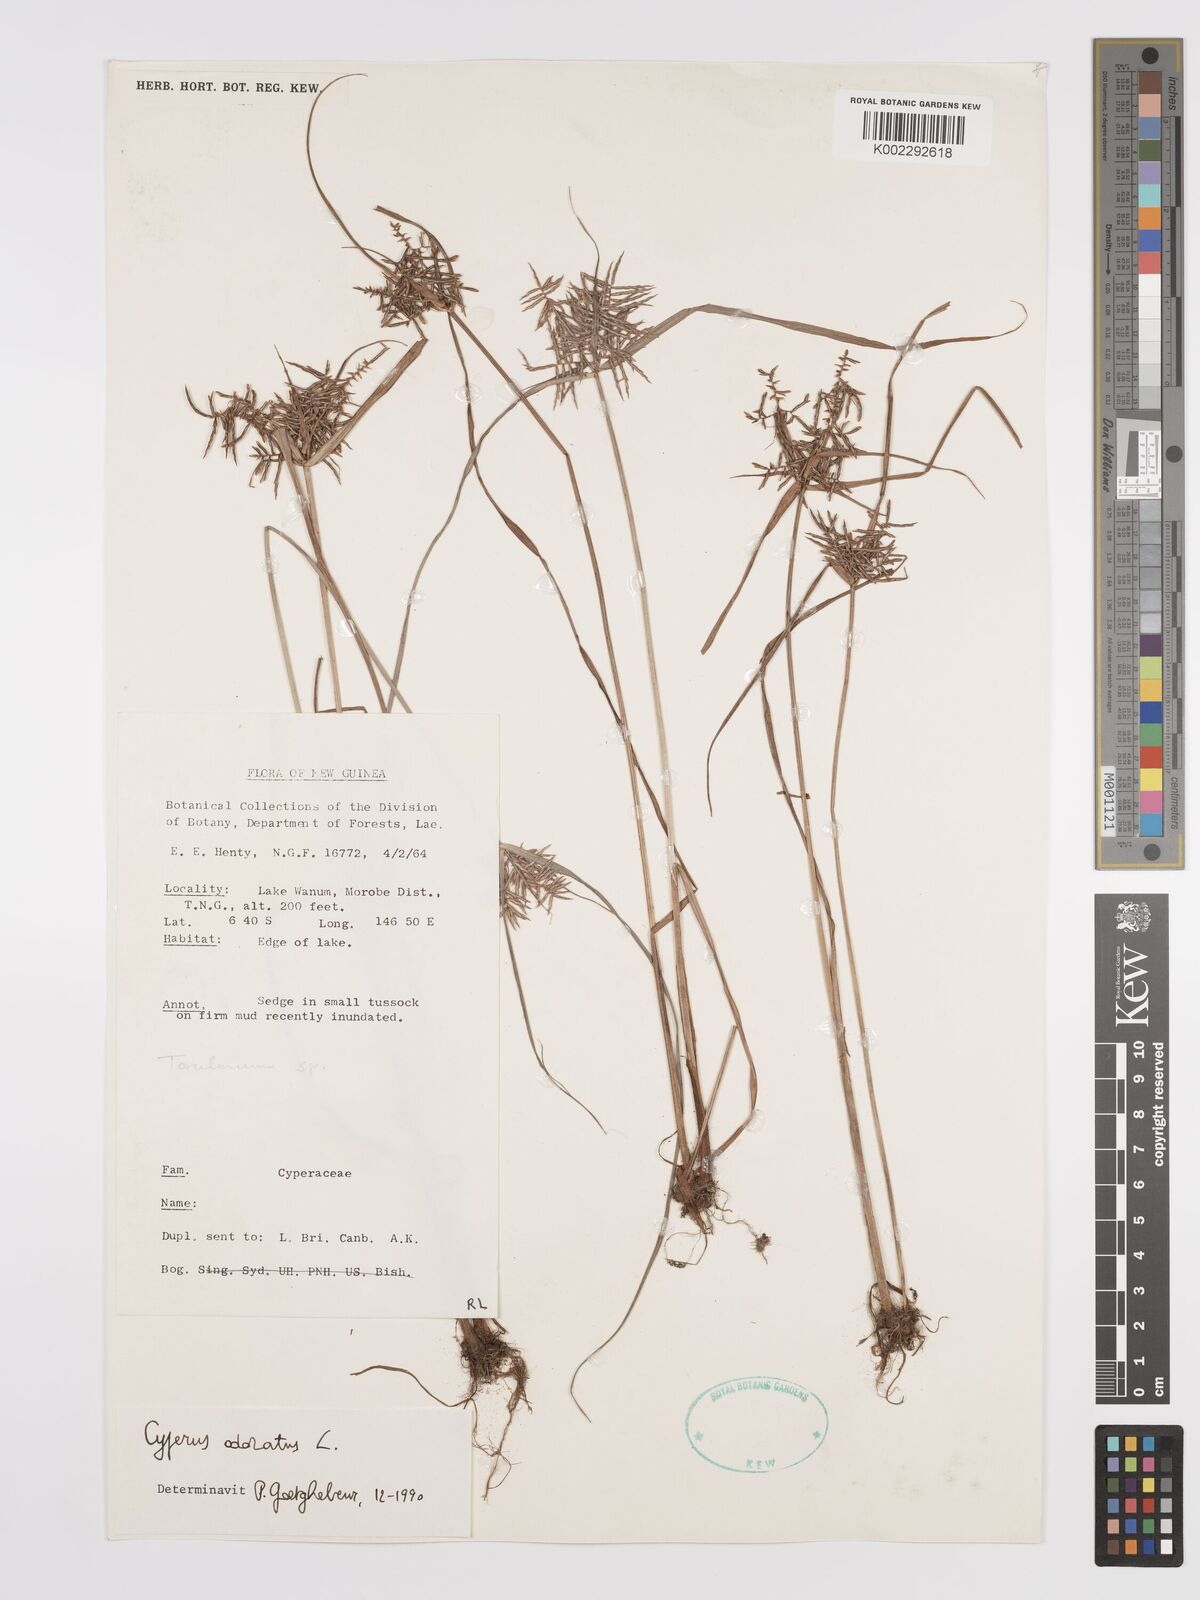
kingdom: Plantae
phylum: Tracheophyta
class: Liliopsida
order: Poales
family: Cyperaceae
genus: Cyperus
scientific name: Cyperus odoratus
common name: Fragrant flatsedge
